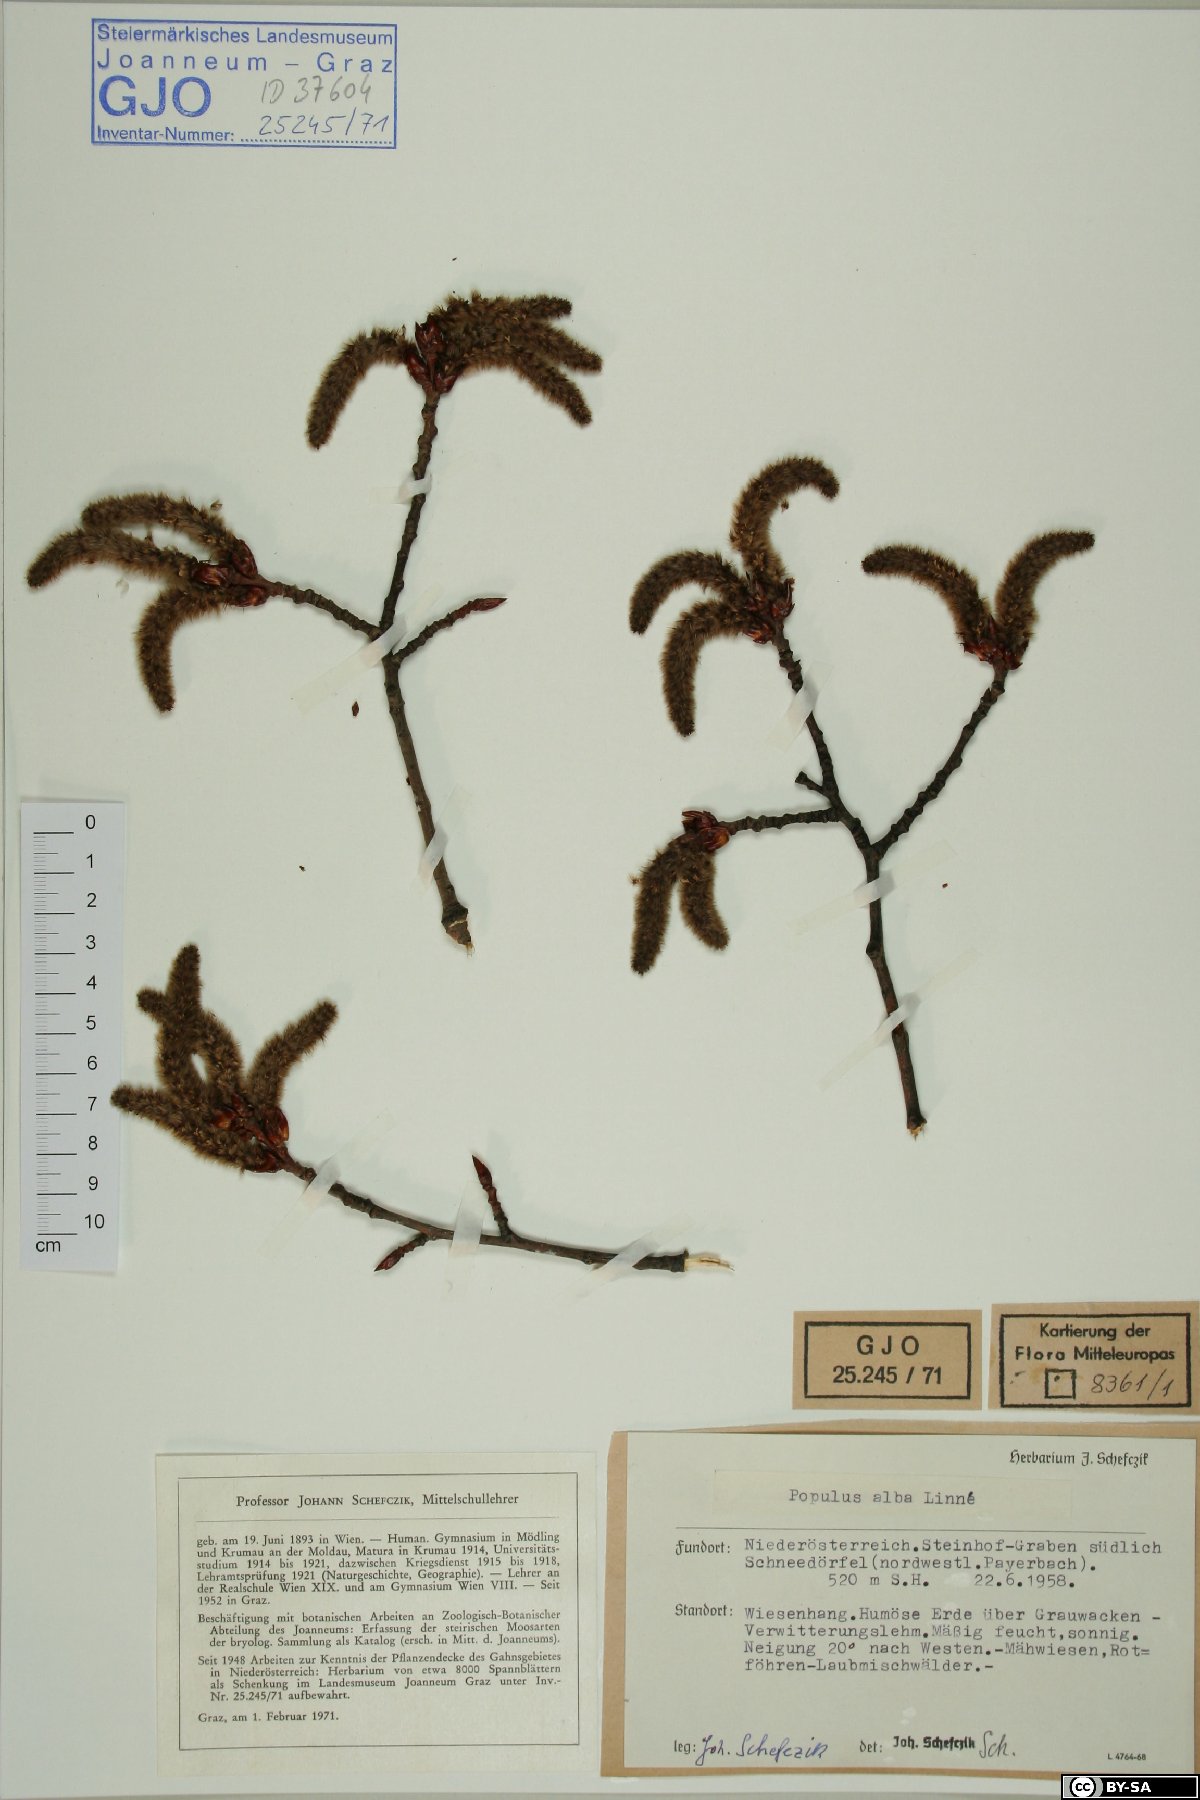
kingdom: Plantae
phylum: Tracheophyta
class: Magnoliopsida
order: Malpighiales
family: Salicaceae
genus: Populus
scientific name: Populus alba
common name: White poplar
